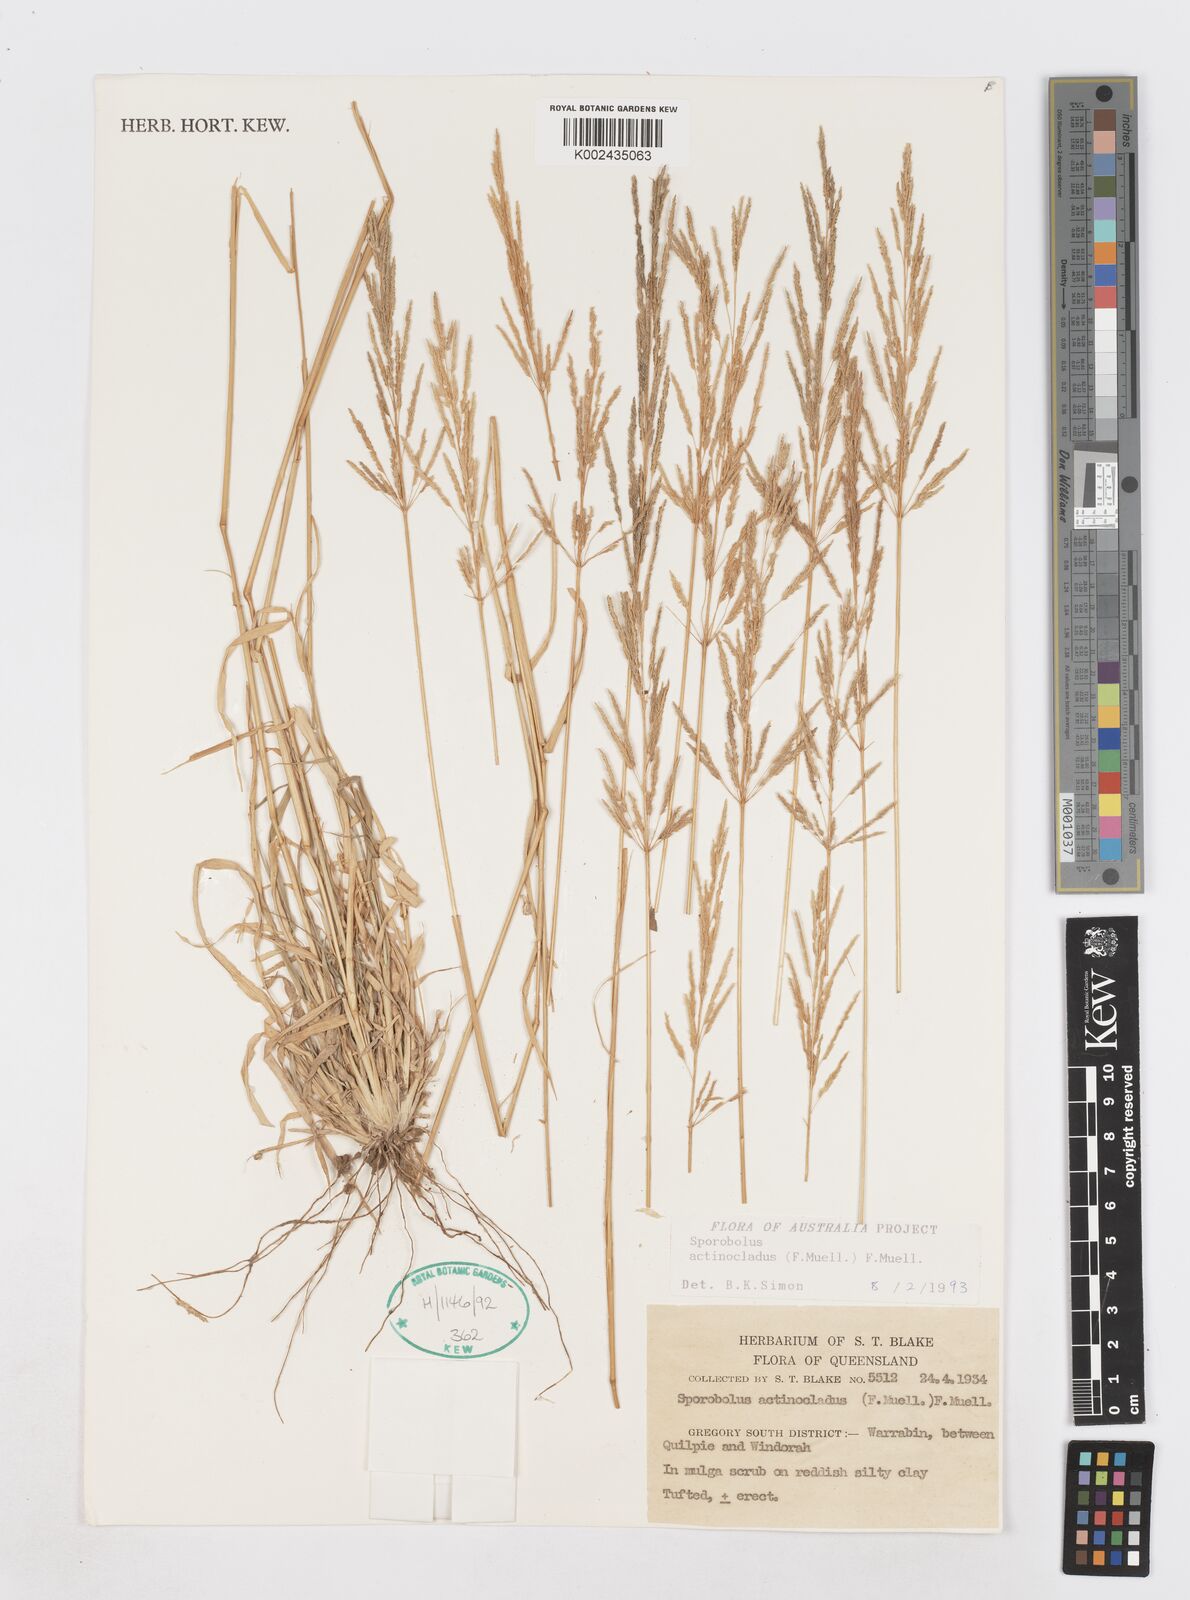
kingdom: Plantae
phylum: Tracheophyta
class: Liliopsida
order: Poales
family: Poaceae
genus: Sporobolus
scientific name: Sporobolus actinocladus
